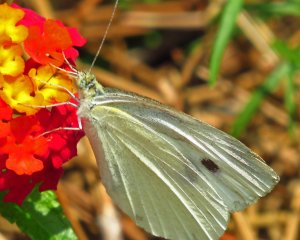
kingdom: Animalia
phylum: Arthropoda
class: Insecta
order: Lepidoptera
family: Pieridae
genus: Pieris
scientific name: Pieris rapae
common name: Cabbage White
